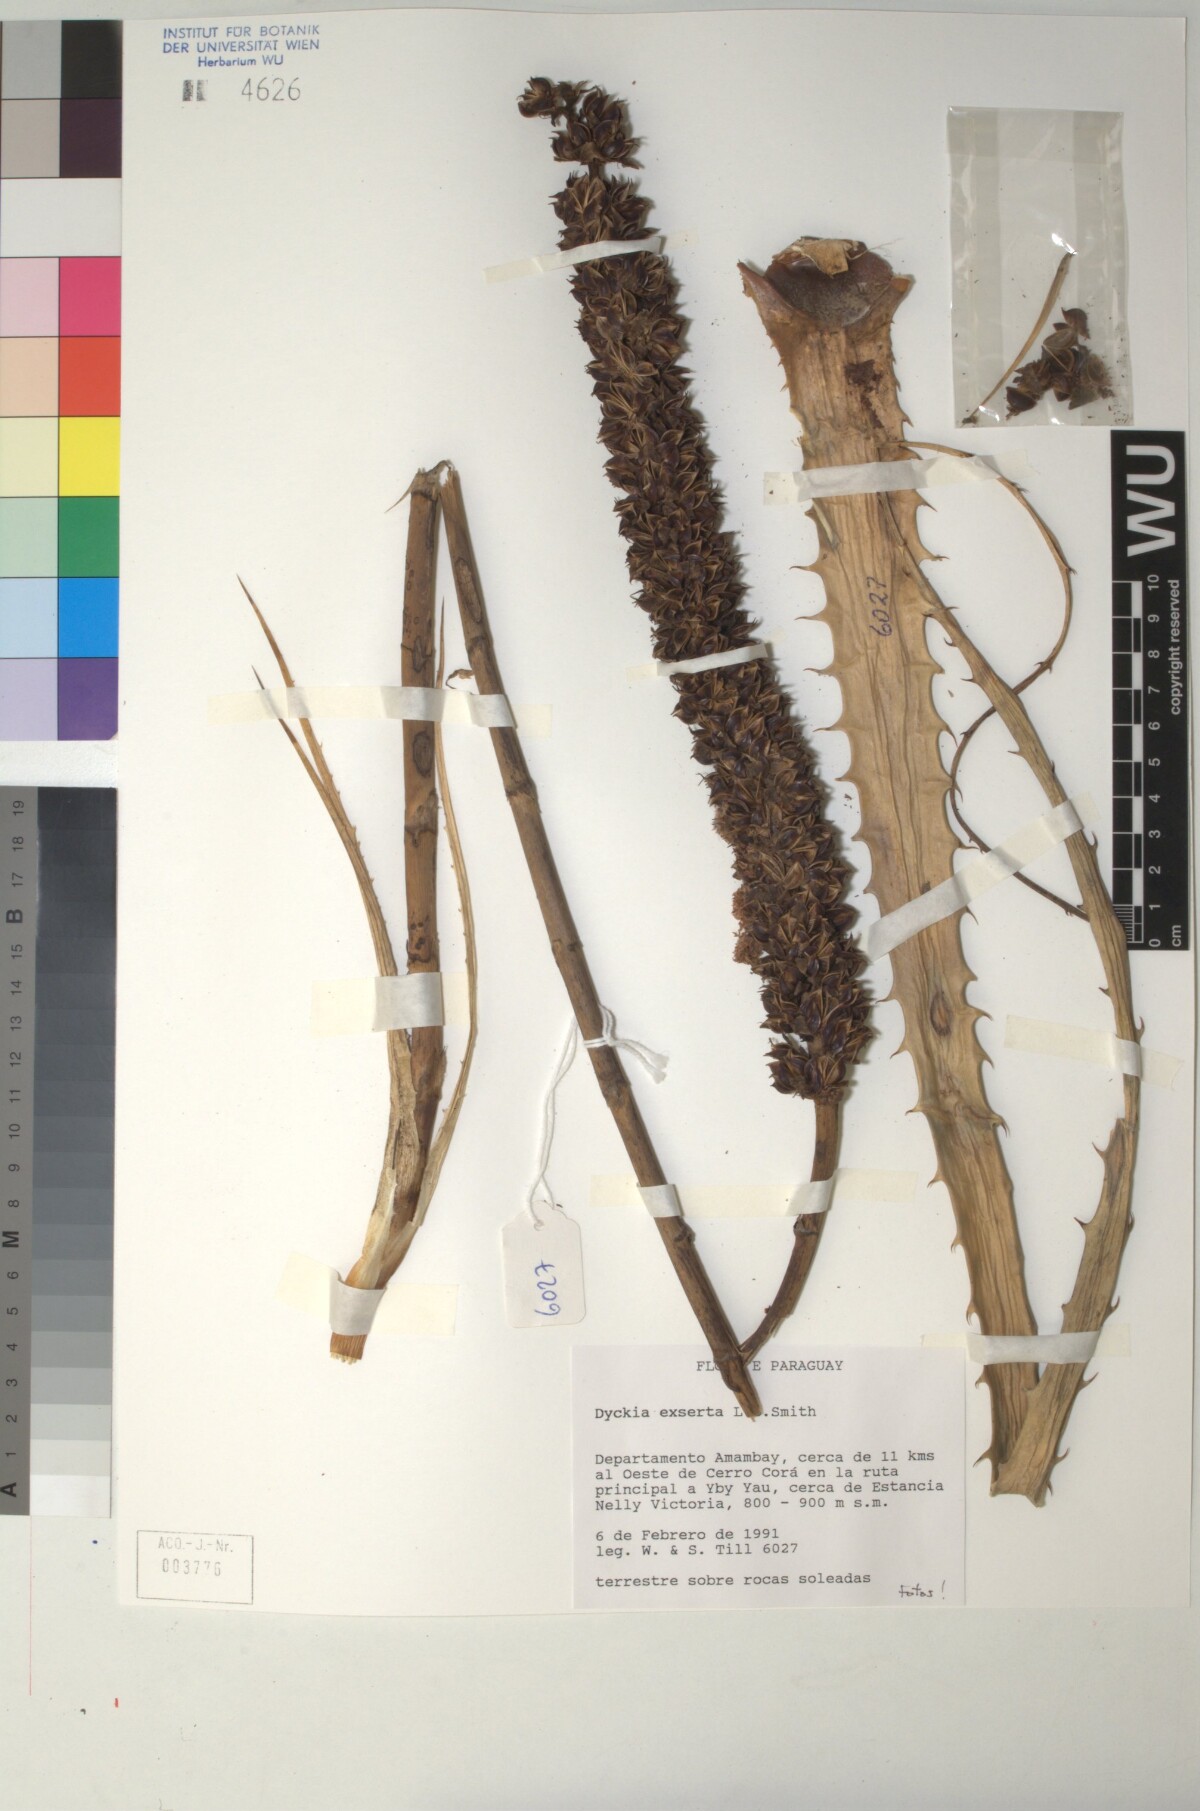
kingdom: Plantae
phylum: Tracheophyta
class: Liliopsida
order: Poales
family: Bromeliaceae
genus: Dyckia
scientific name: Dyckia exserta
